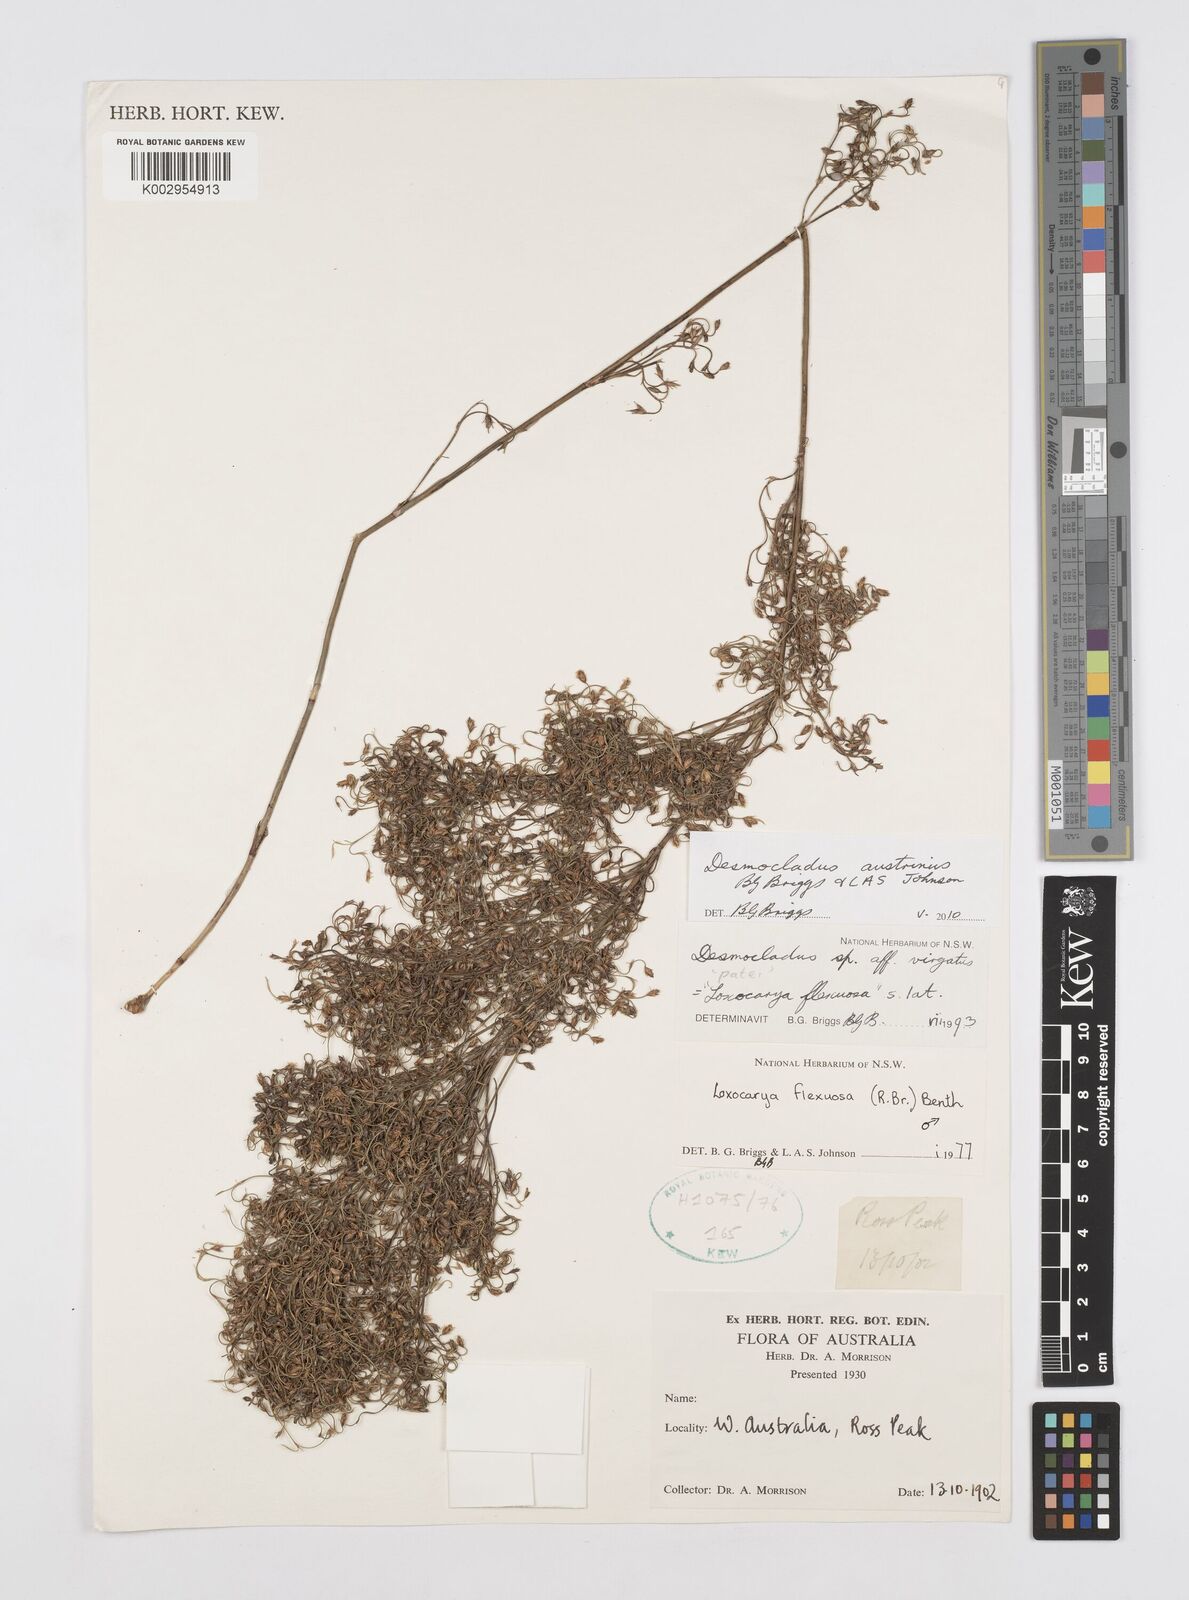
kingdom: Plantae
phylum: Tracheophyta
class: Liliopsida
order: Poales
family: Restionaceae
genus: Desmocladus
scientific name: Desmocladus austrinus
